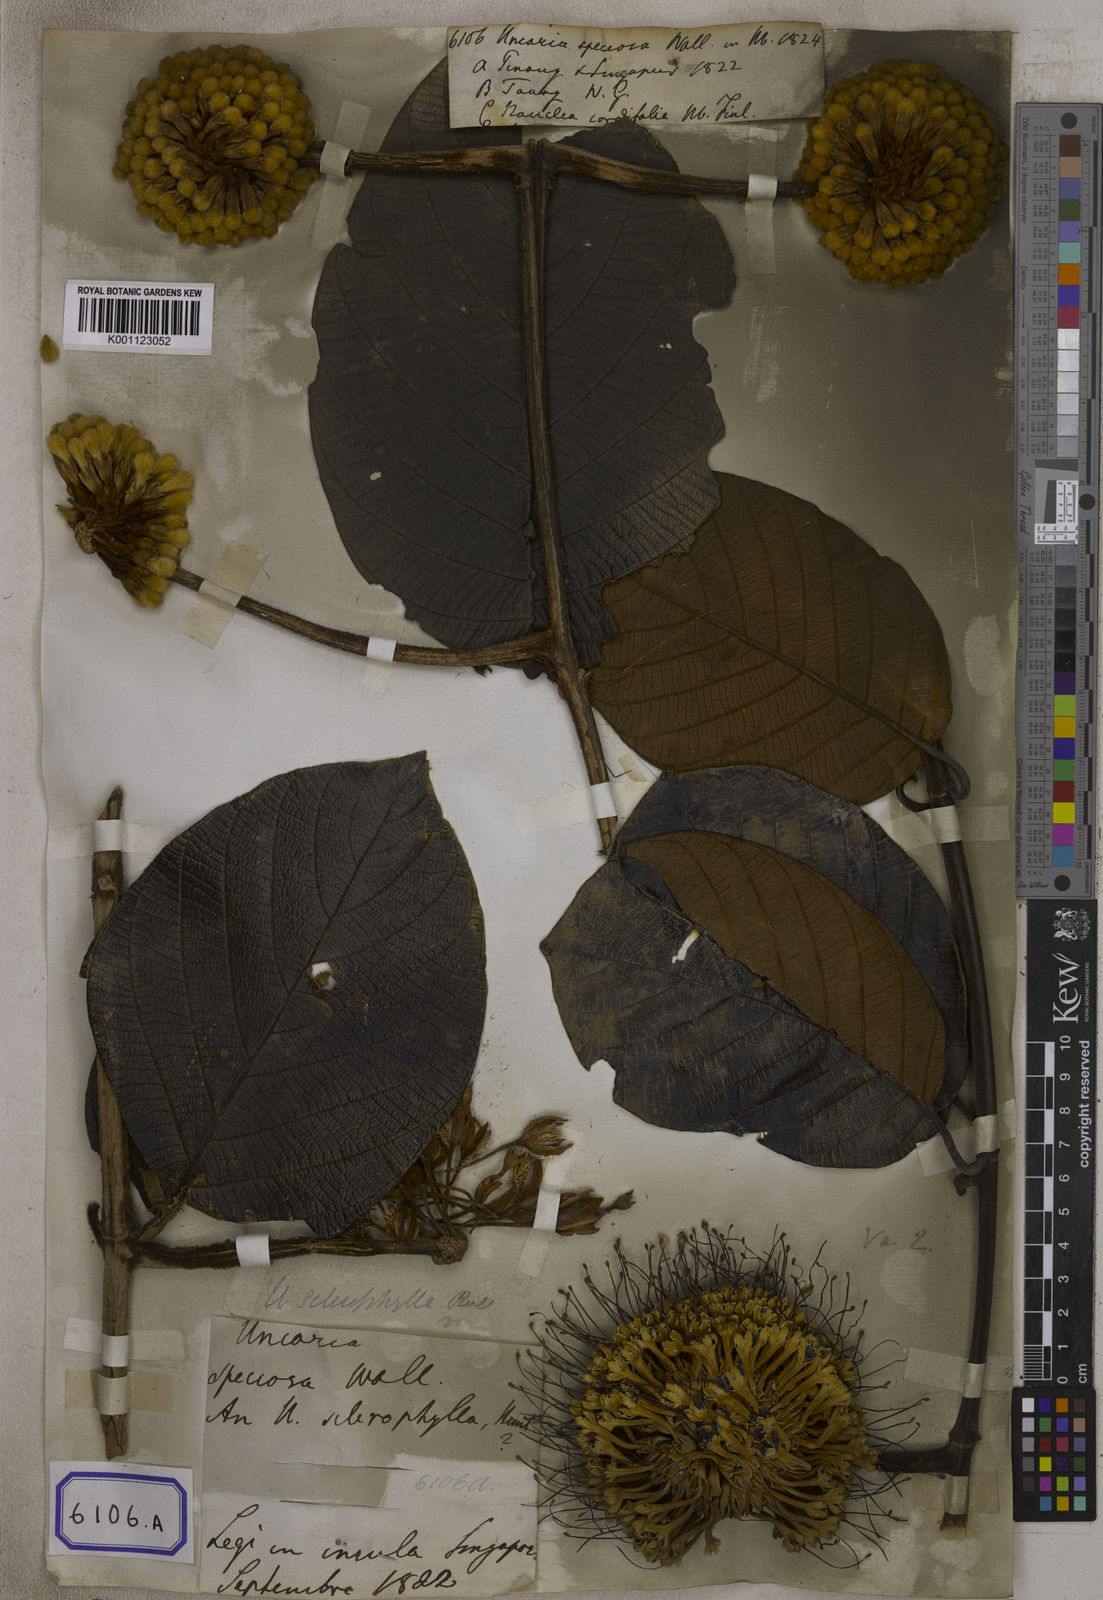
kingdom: Plantae
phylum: Tracheophyta
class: Magnoliopsida
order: Gentianales
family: Rubiaceae
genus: Uncaria
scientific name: Uncaria cordata
